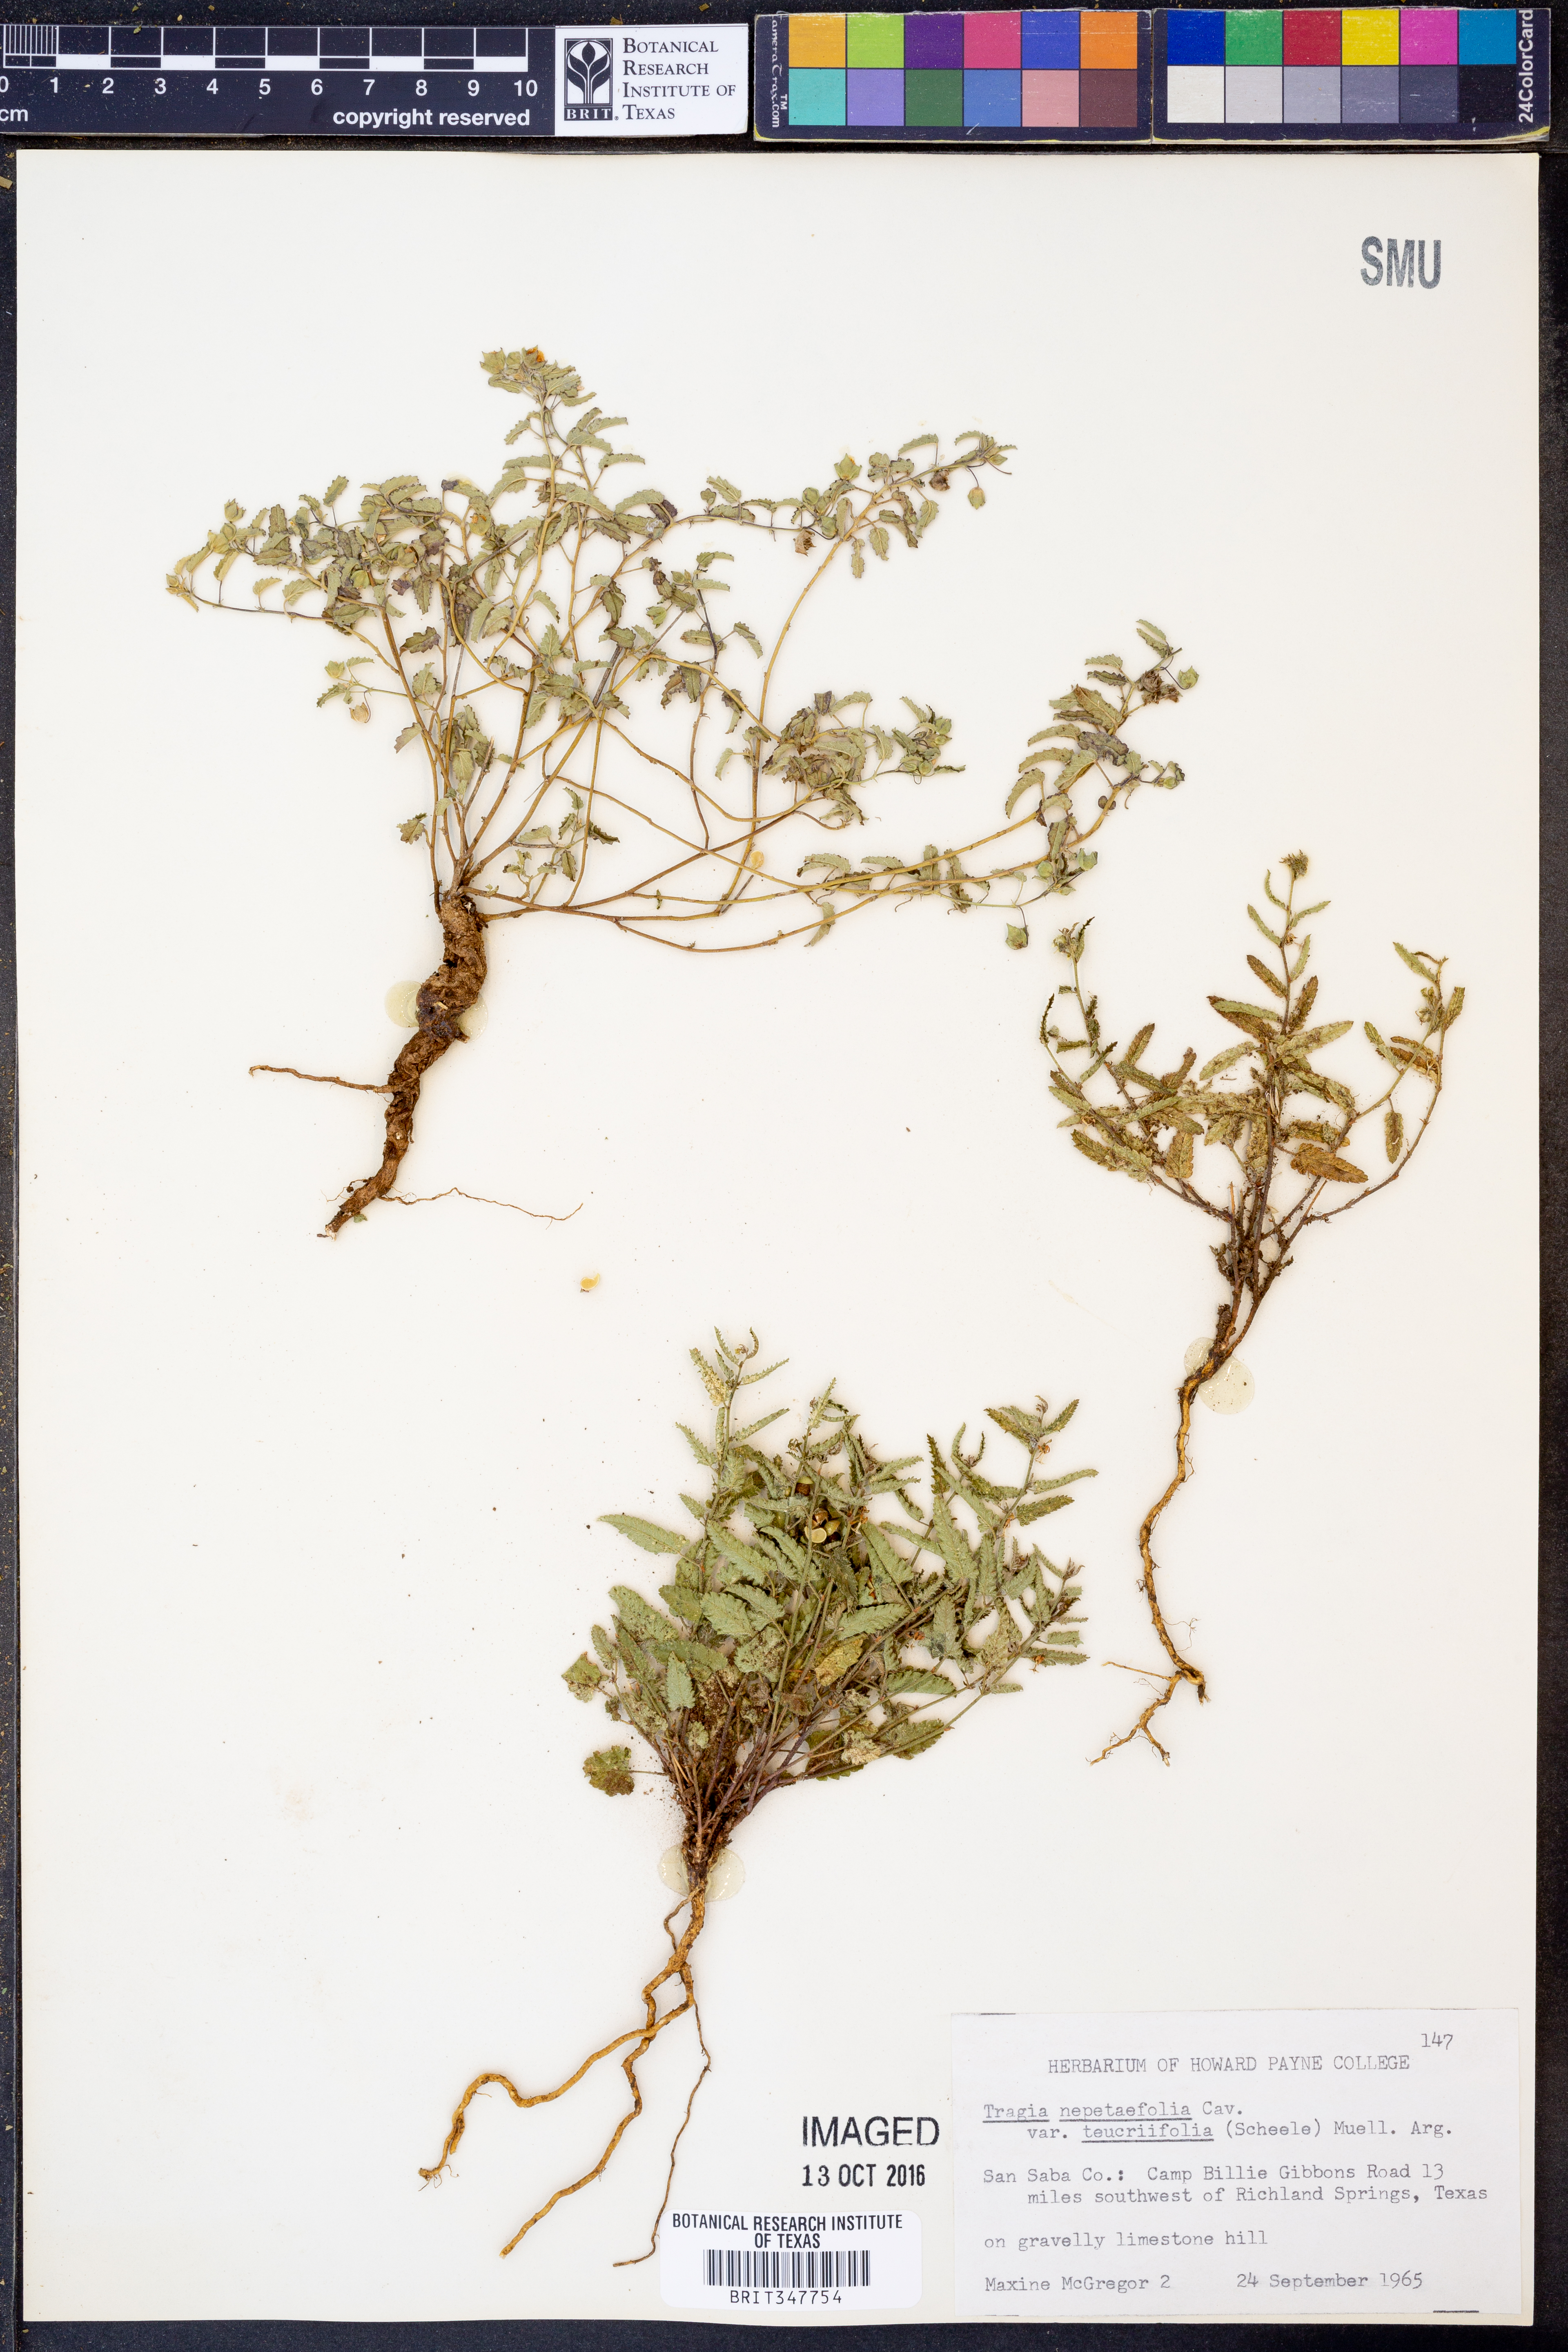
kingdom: Plantae
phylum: Tracheophyta
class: Magnoliopsida
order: Malpighiales
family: Euphorbiaceae
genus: Tragia
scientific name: Tragia brevispica
